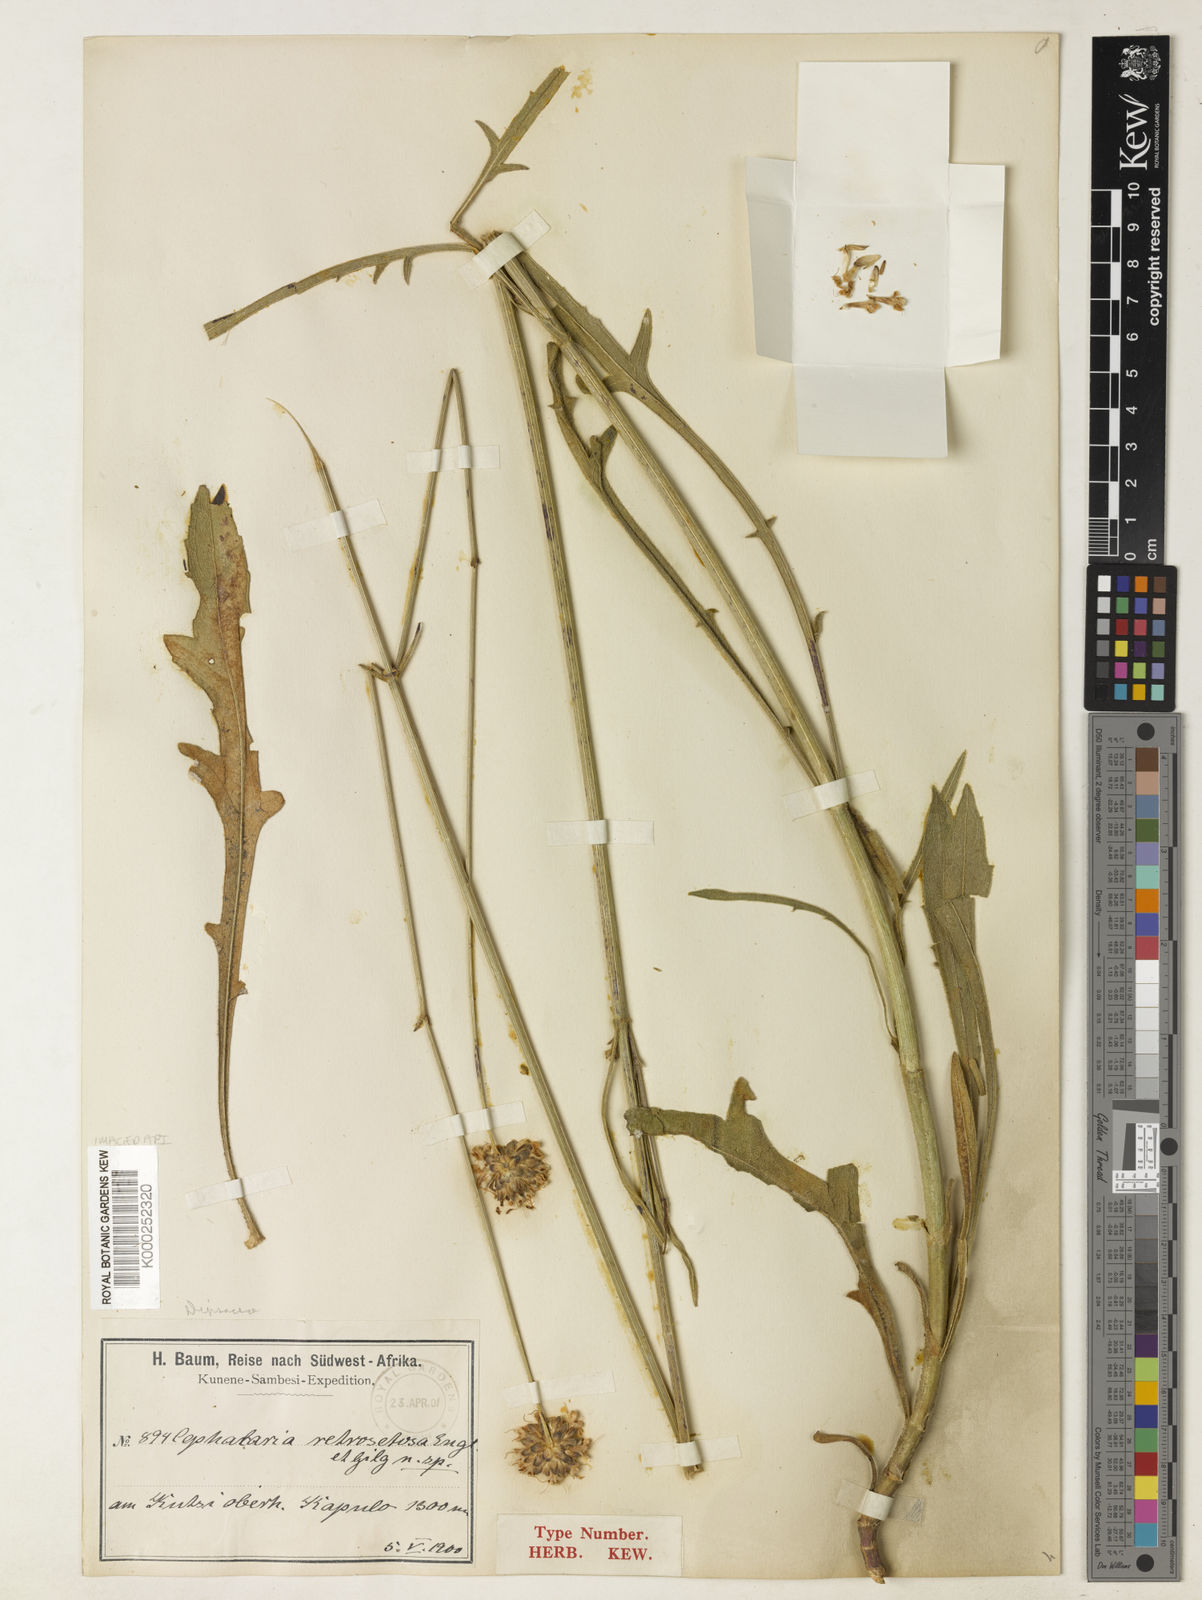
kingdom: Plantae
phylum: Tracheophyta
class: Magnoliopsida
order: Dipsacales
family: Caprifoliaceae
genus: Cephalaria
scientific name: Cephalaria retrosetosa
